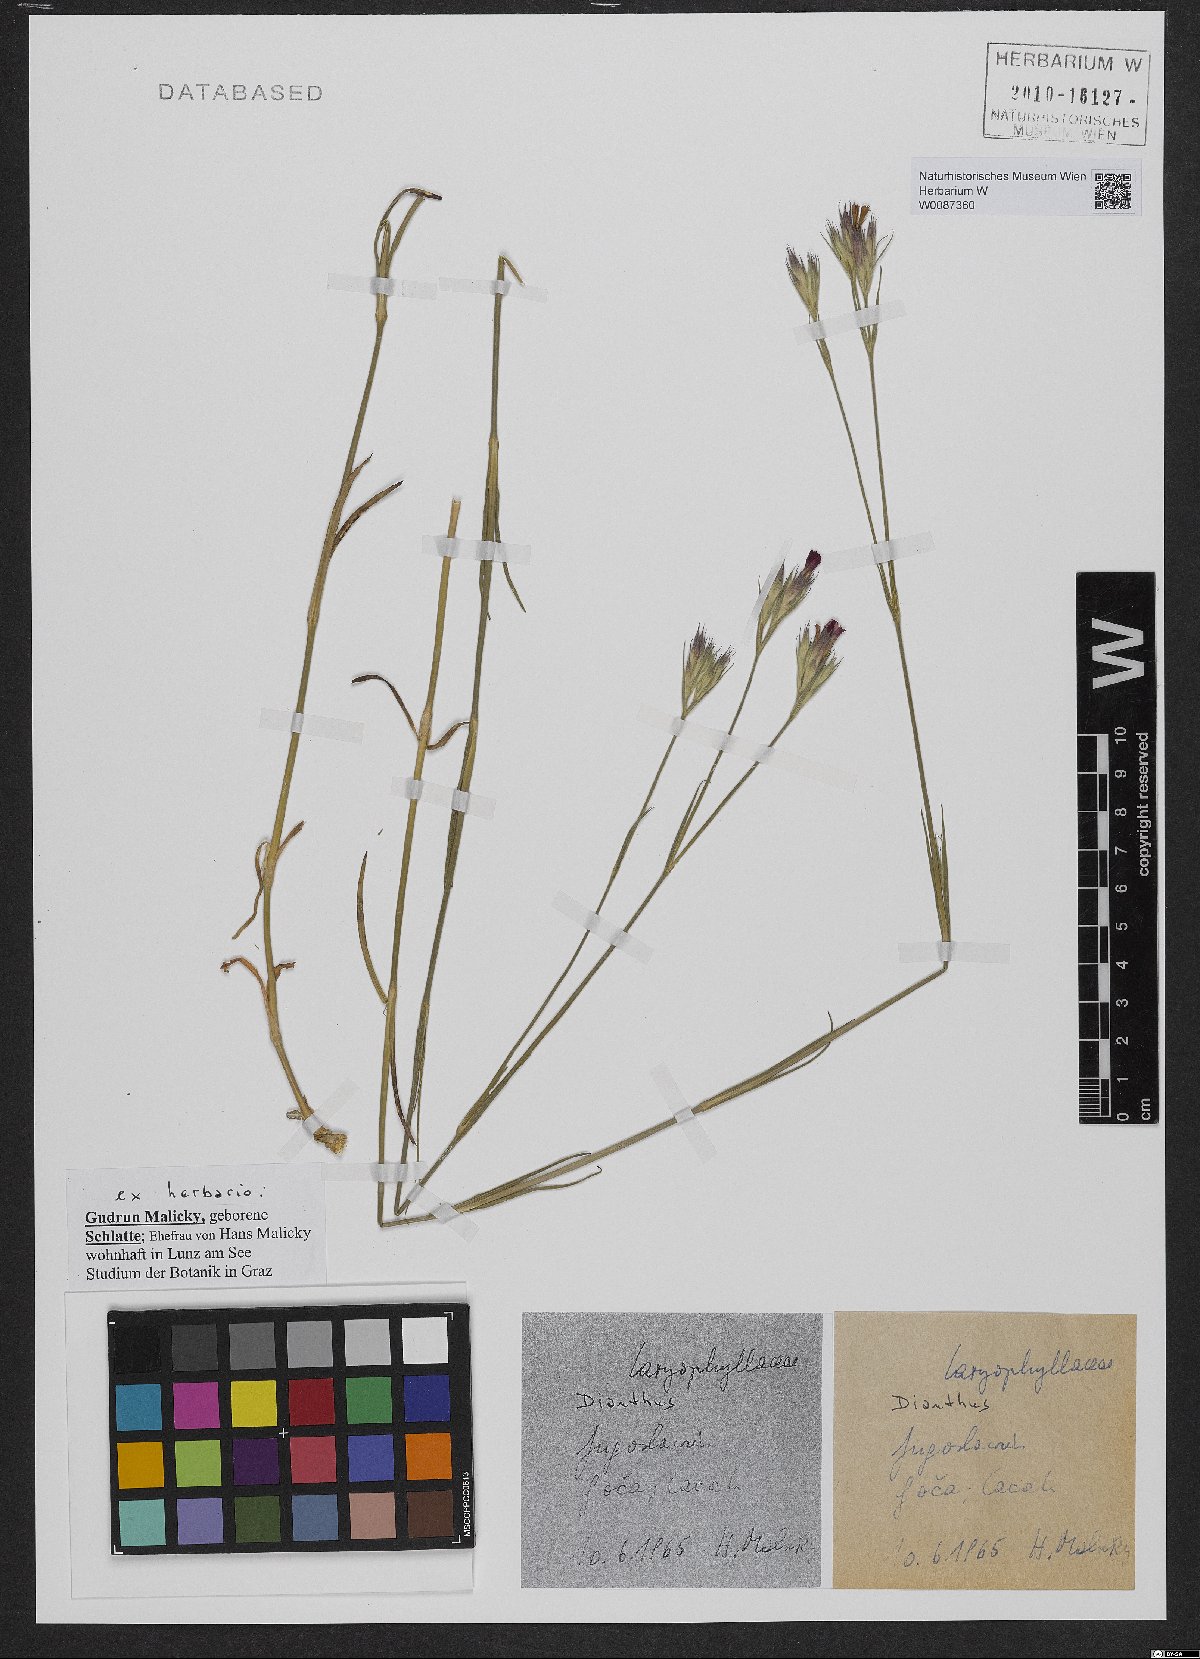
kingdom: Plantae
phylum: Tracheophyta
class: Magnoliopsida
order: Caryophyllales
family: Caryophyllaceae
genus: Dianthus
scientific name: Dianthus
